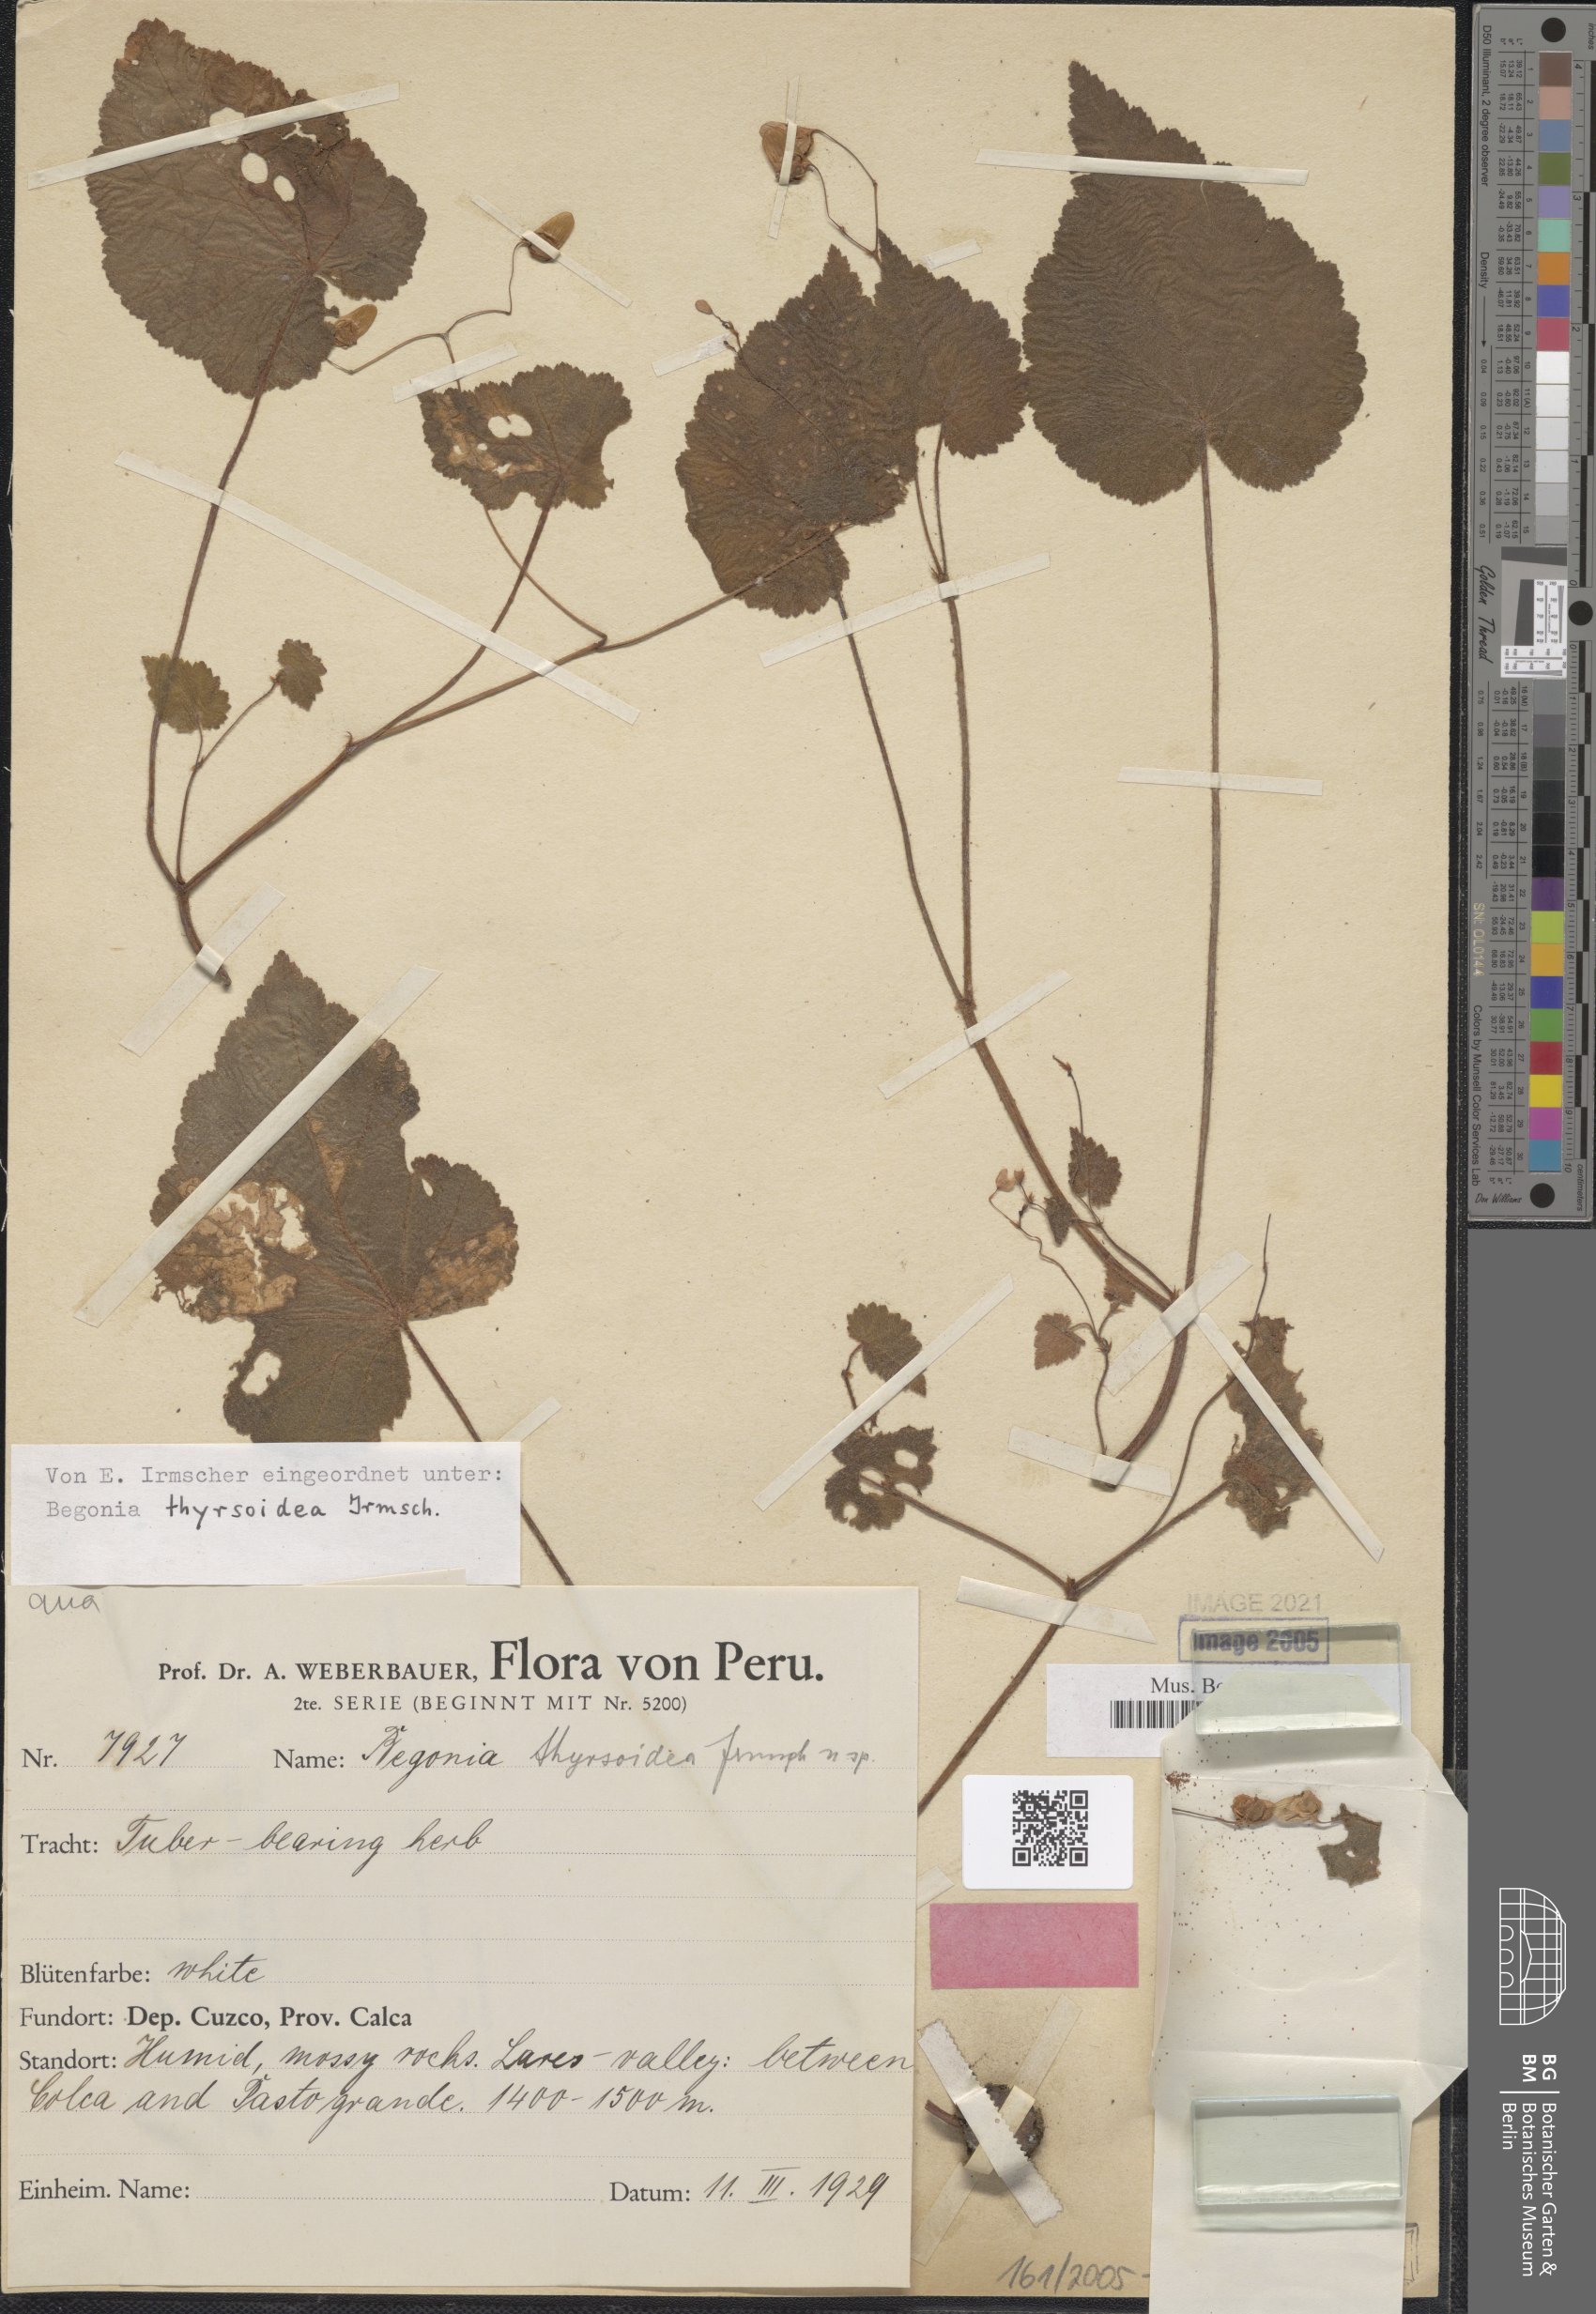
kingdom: Plantae
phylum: Tracheophyta
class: Magnoliopsida
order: Cucurbitales
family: Begoniaceae
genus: Begonia
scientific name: Begonia thyrsoidea
